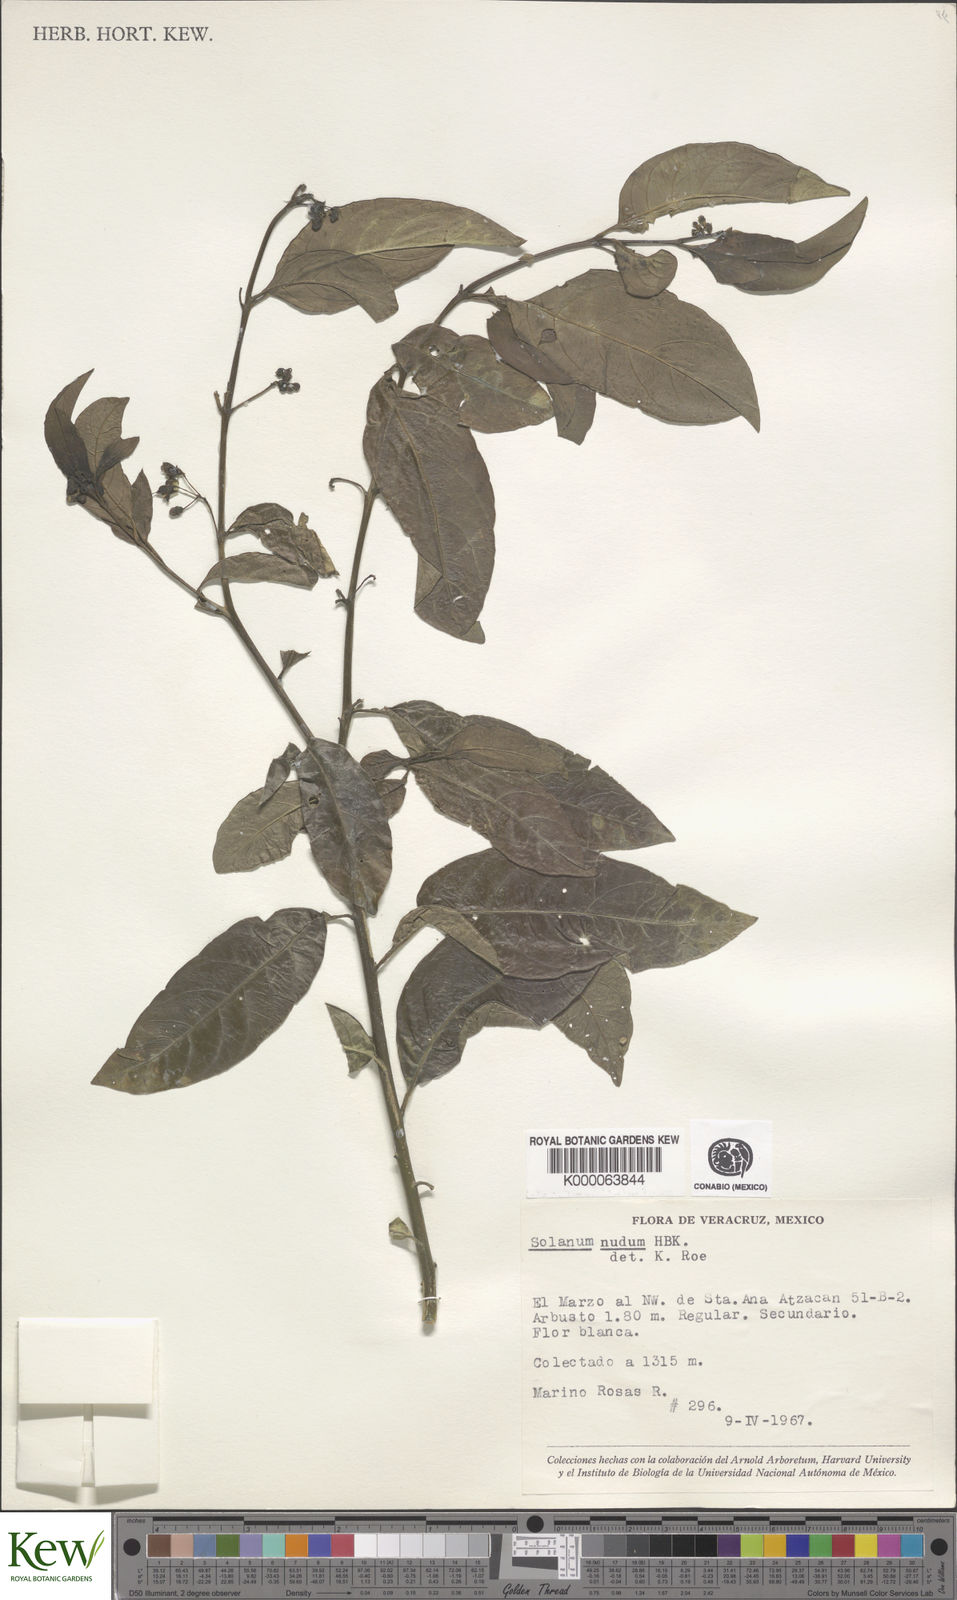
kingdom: Plantae
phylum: Tracheophyta
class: Magnoliopsida
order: Solanales
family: Solanaceae
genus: Solanum
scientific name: Solanum nudum
